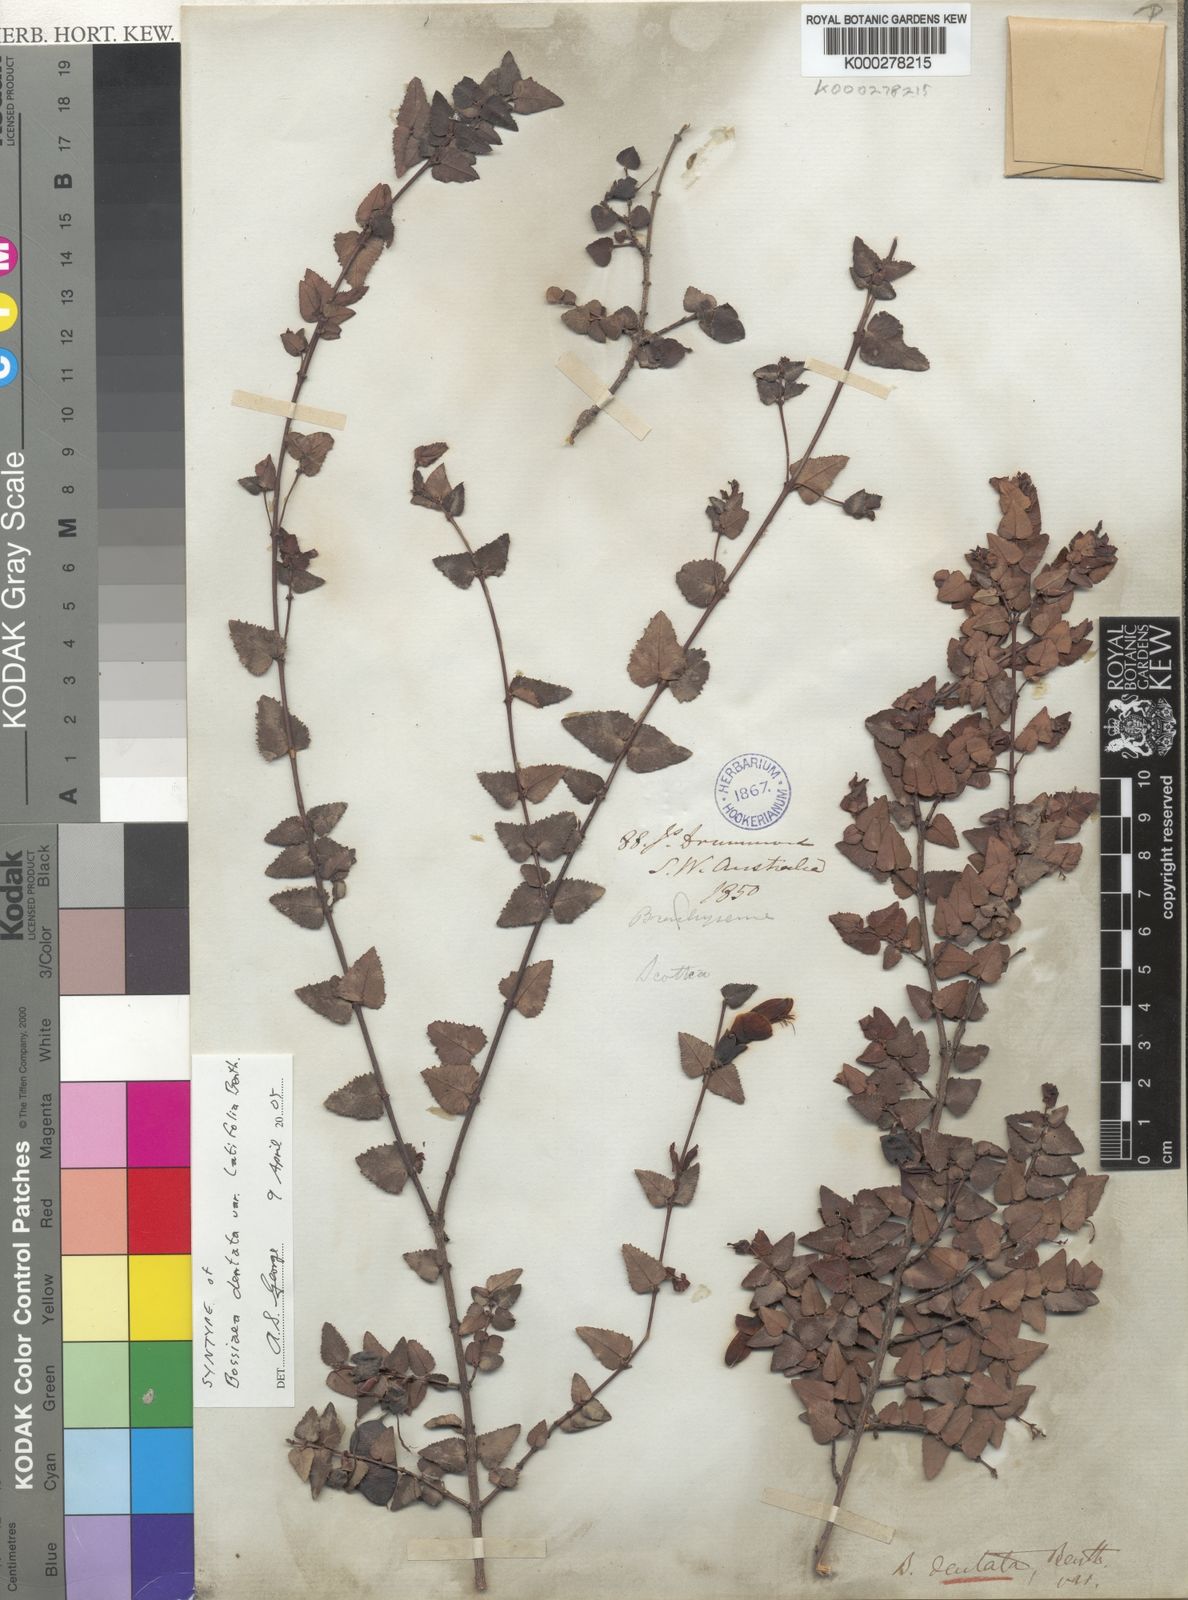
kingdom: Plantae
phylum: Tracheophyta
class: Magnoliopsida
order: Fabales
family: Fabaceae
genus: Bossiaea
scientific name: Bossiaea dentata
